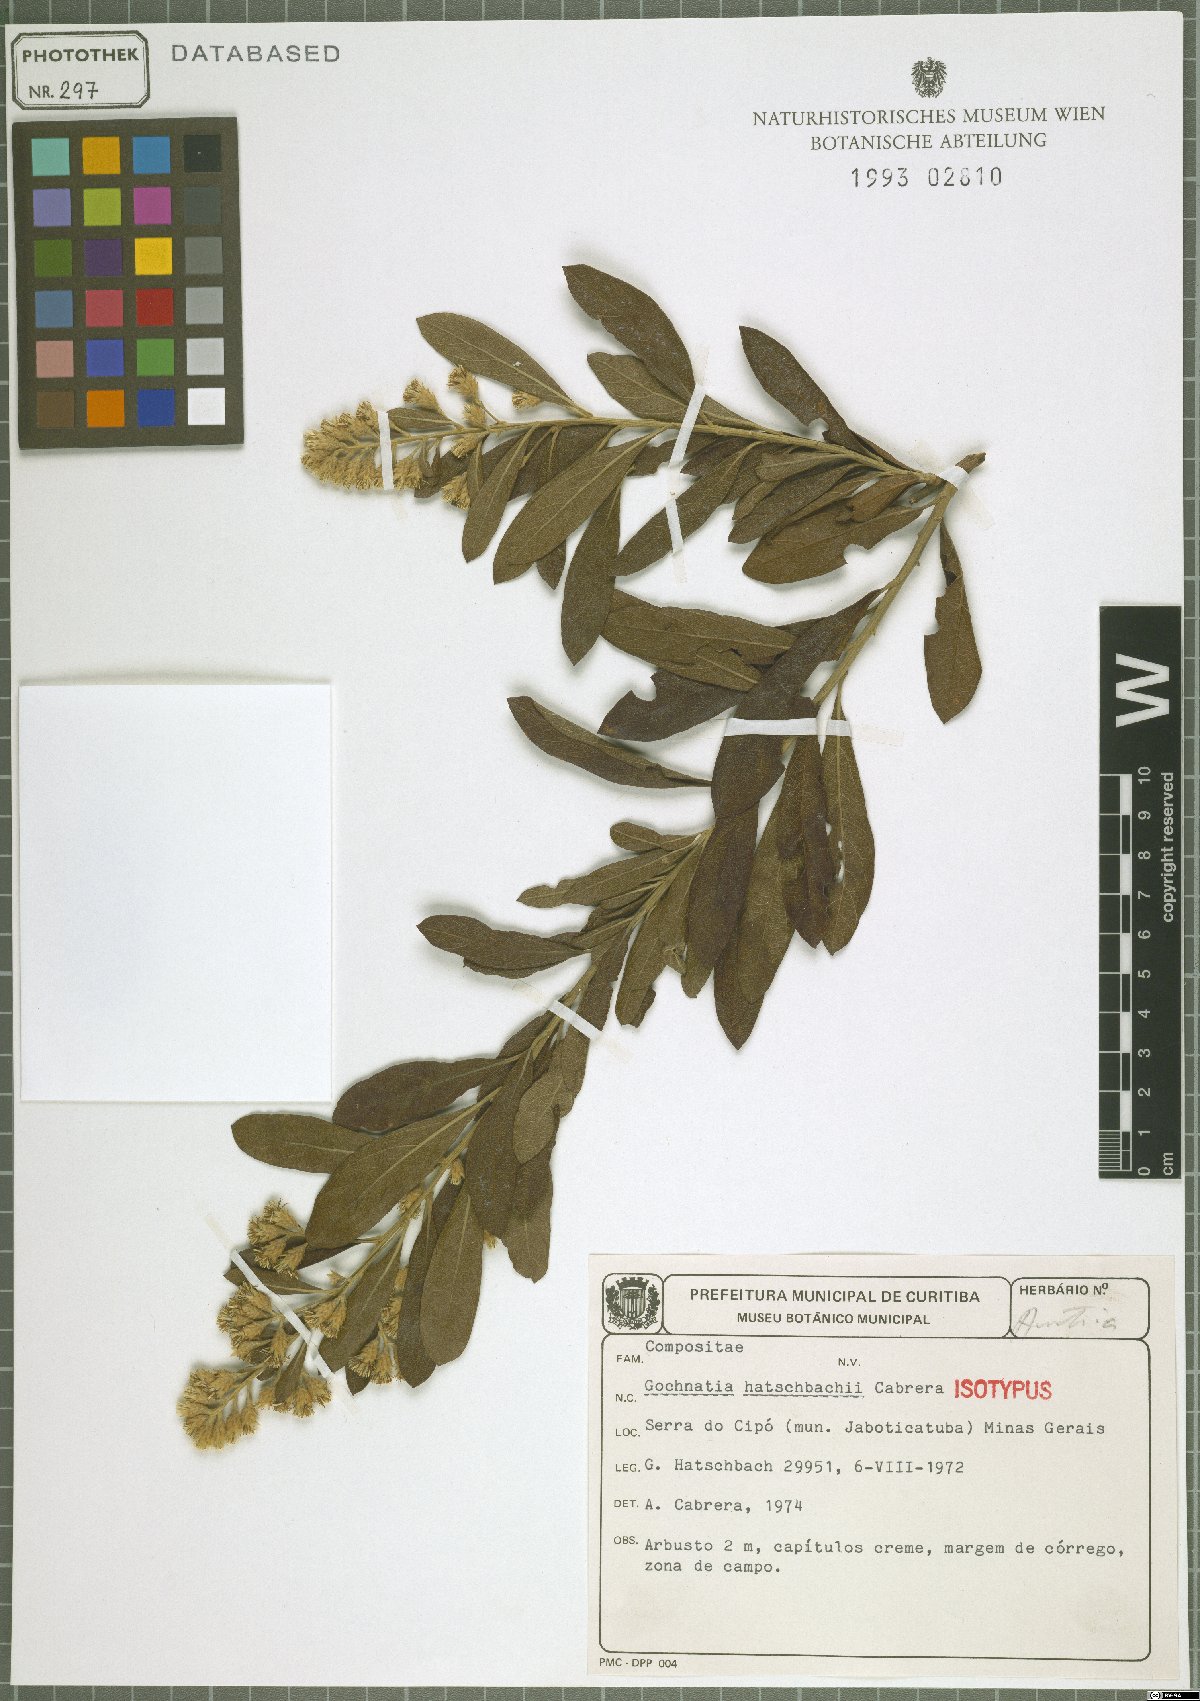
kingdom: Plantae
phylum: Tracheophyta
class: Magnoliopsida
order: Asterales
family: Asteraceae
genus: Moquiniastrum
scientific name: Moquiniastrum hatschbachii
